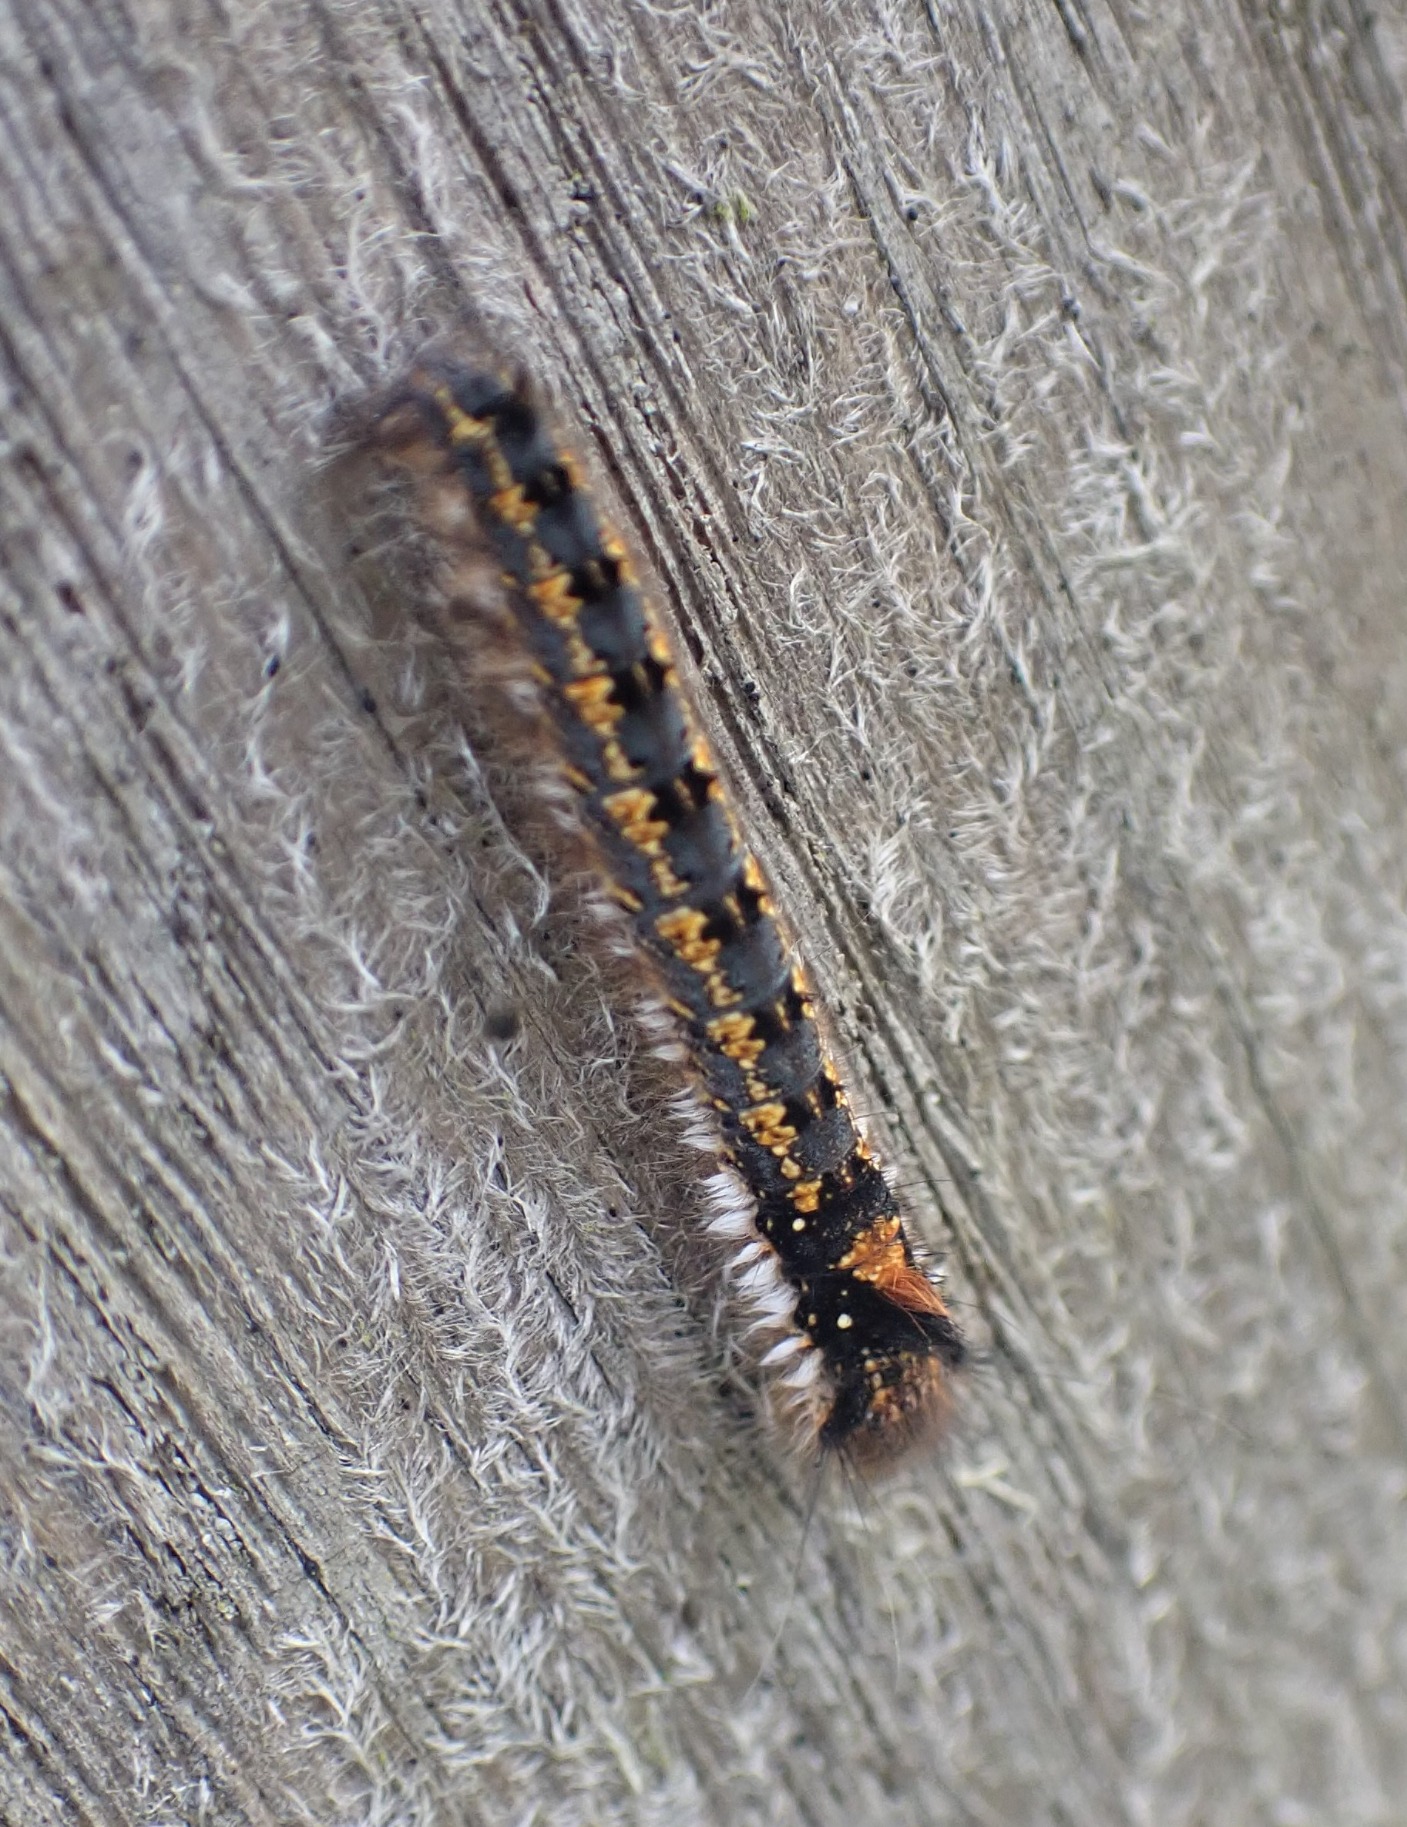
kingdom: Animalia
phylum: Arthropoda
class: Insecta
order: Lepidoptera
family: Lasiocampidae
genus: Euthrix
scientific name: Euthrix potatoria
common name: Græsspinder
